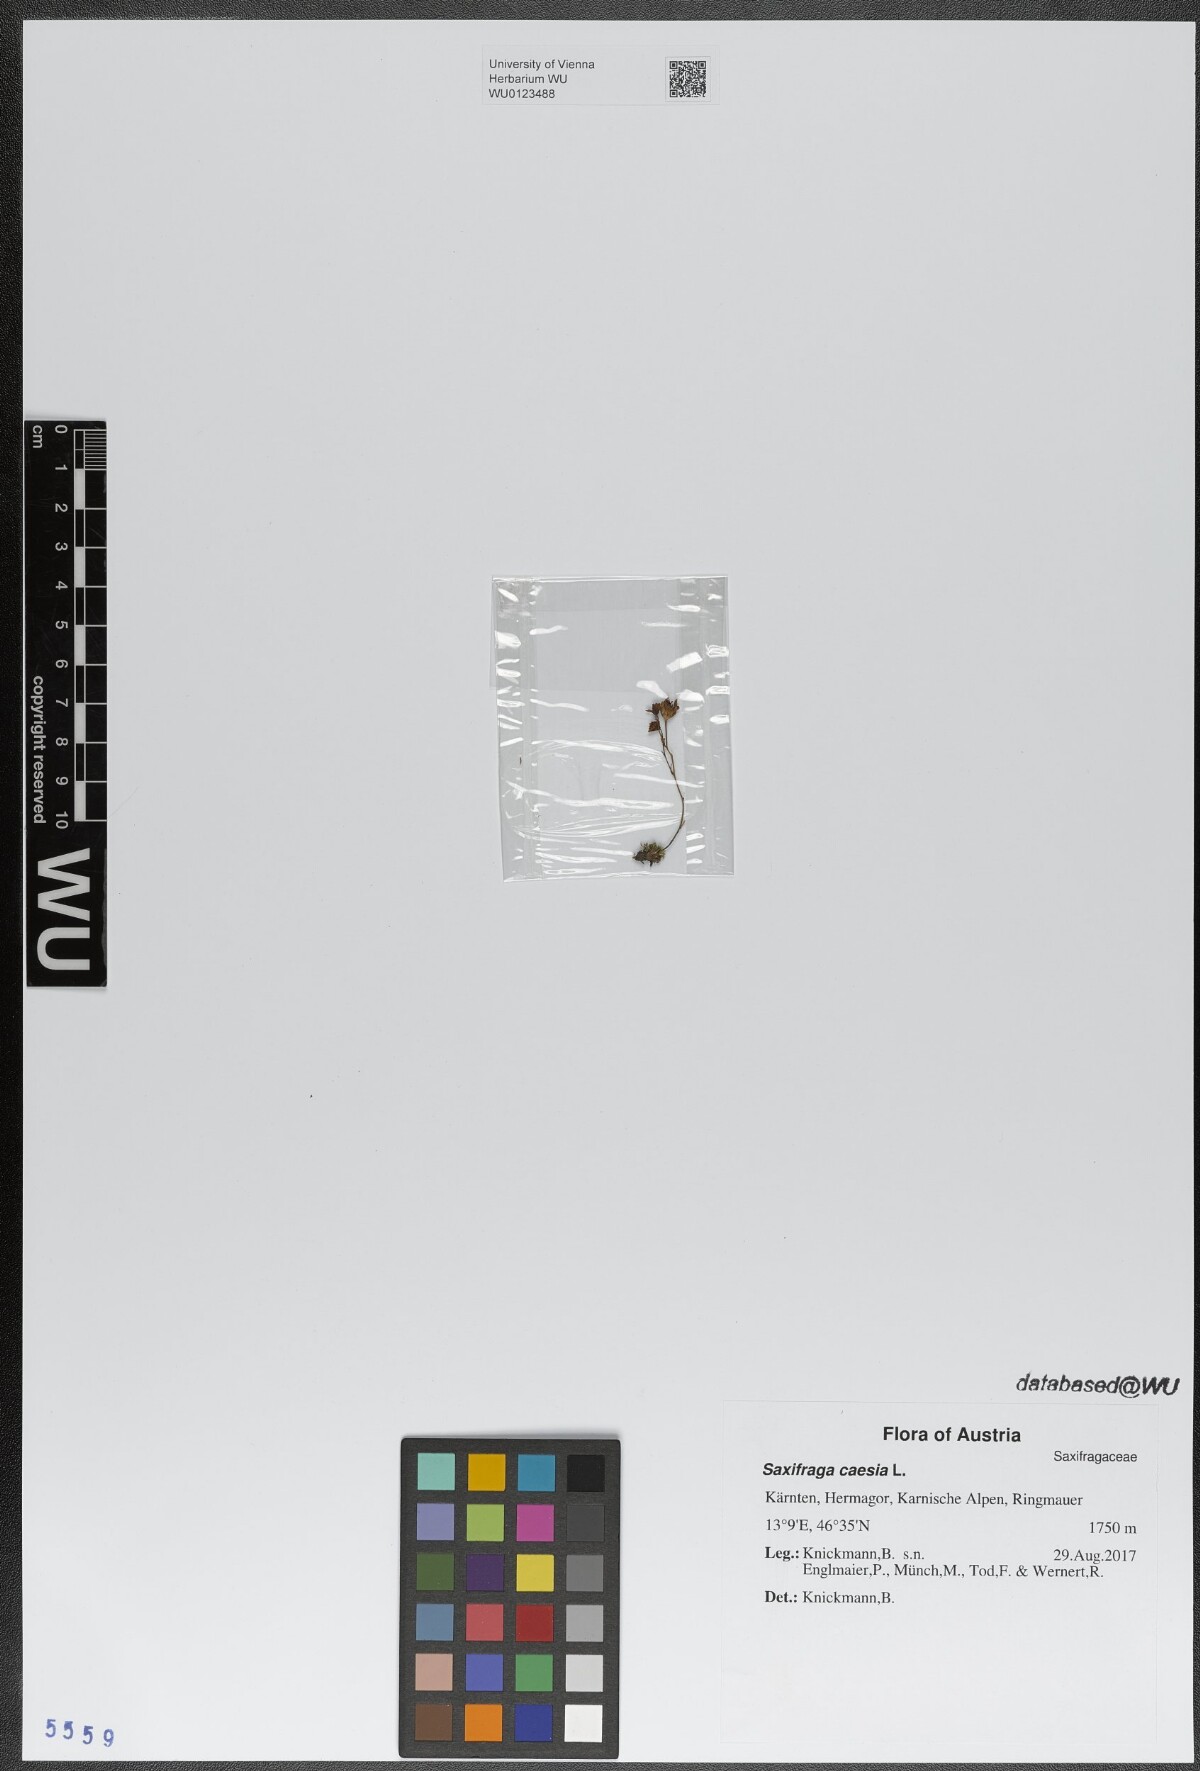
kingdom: Plantae
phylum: Tracheophyta
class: Magnoliopsida
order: Saxifragales
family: Saxifragaceae
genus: Saxifraga
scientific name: Saxifraga caesia
